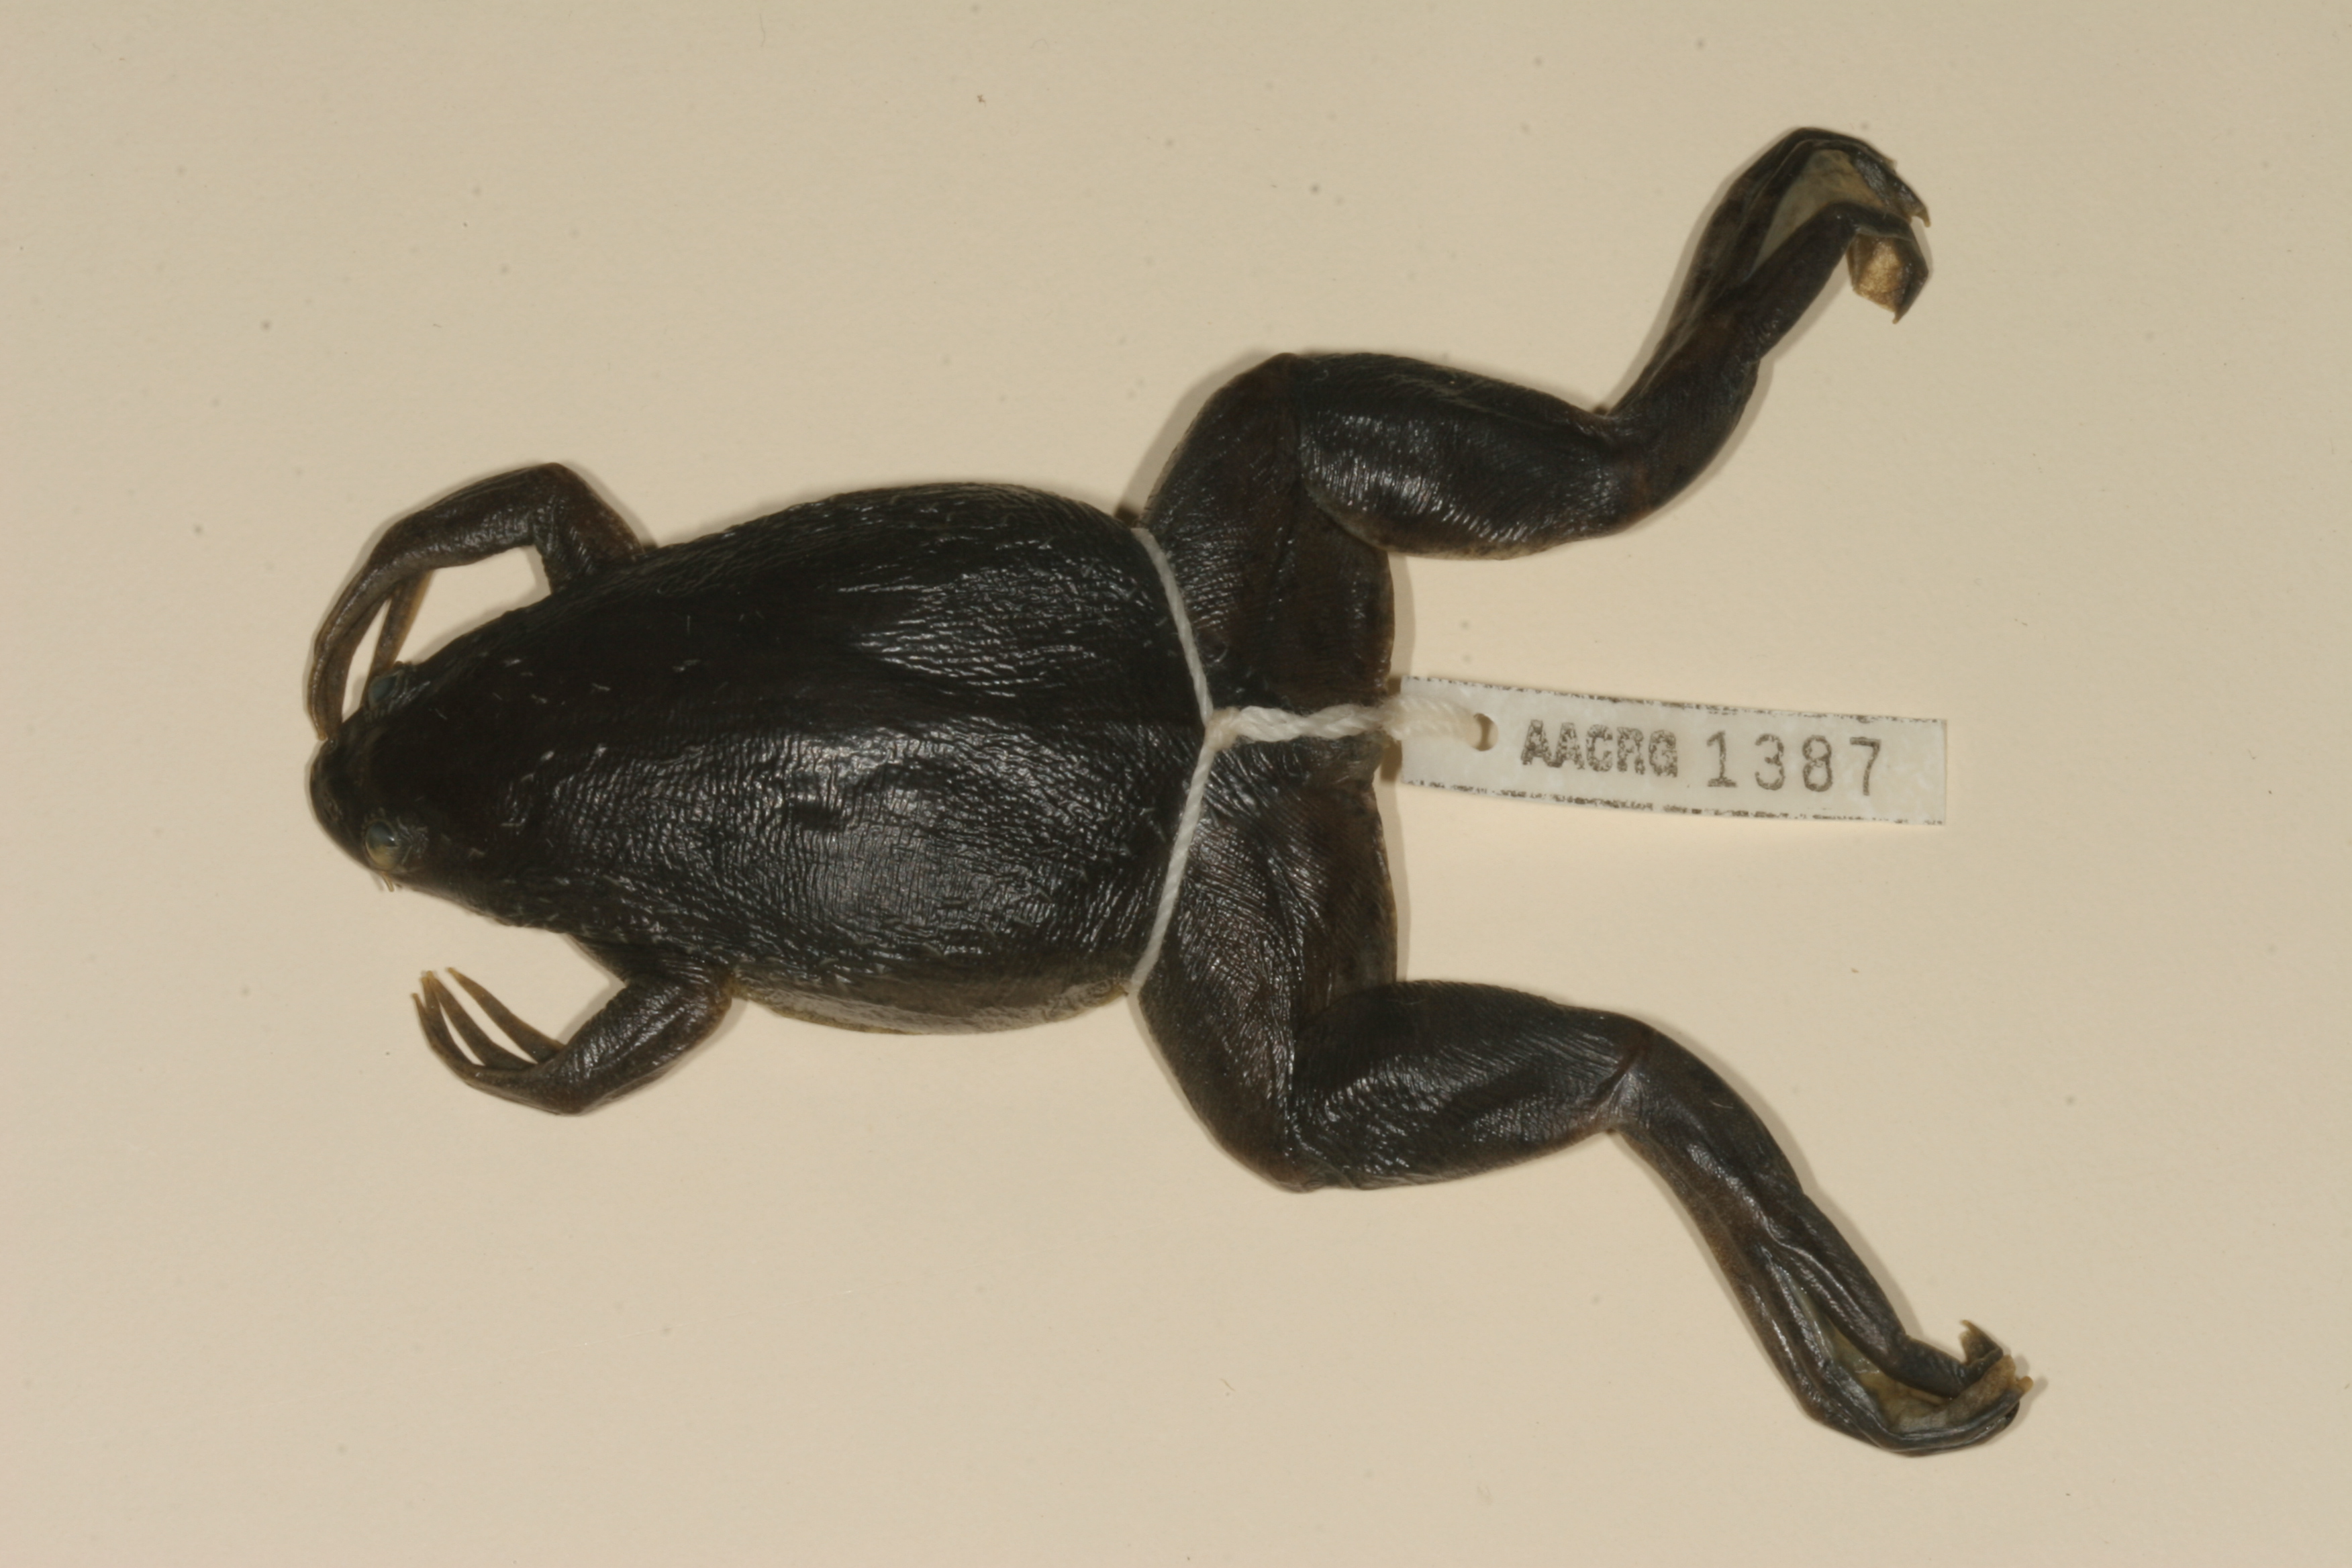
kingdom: Animalia
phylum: Chordata
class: Amphibia
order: Anura
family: Pipidae
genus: Xenopus
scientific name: Xenopus muelleri
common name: Muller's clawed frog
